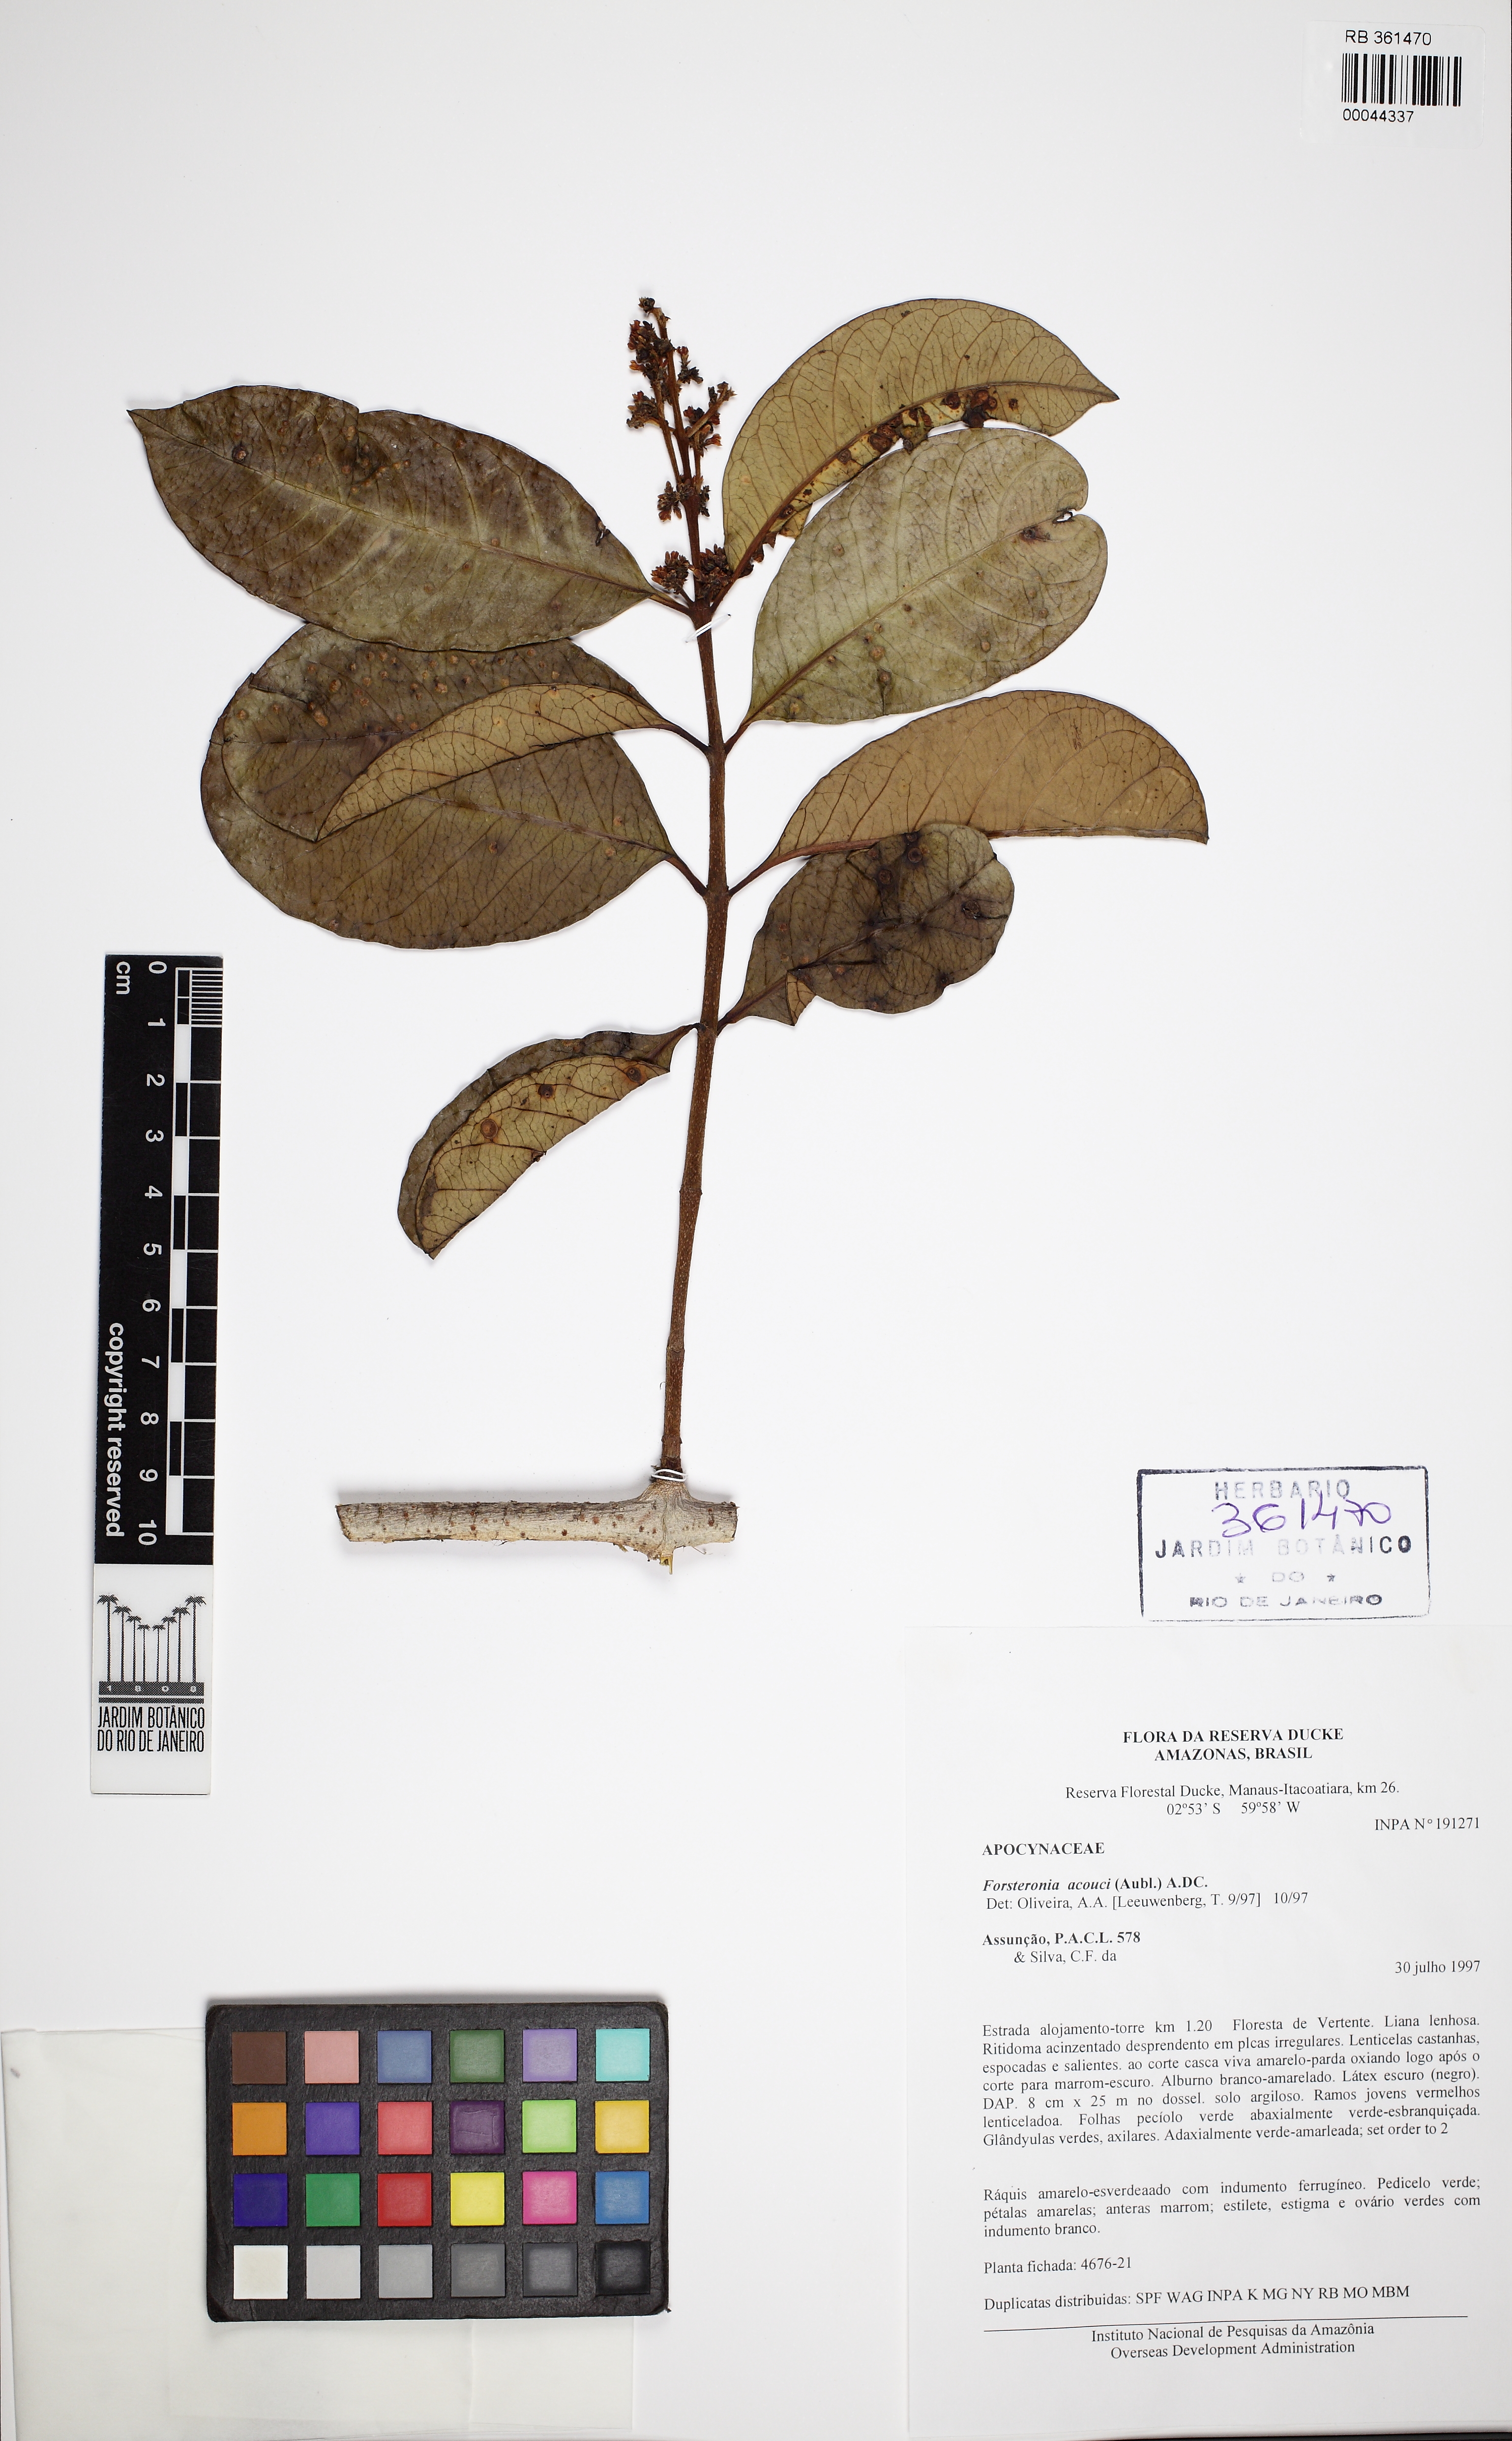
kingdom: Plantae
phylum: Tracheophyta
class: Magnoliopsida
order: Gentianales
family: Apocynaceae
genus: Forsteronia
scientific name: Forsteronia acouci
